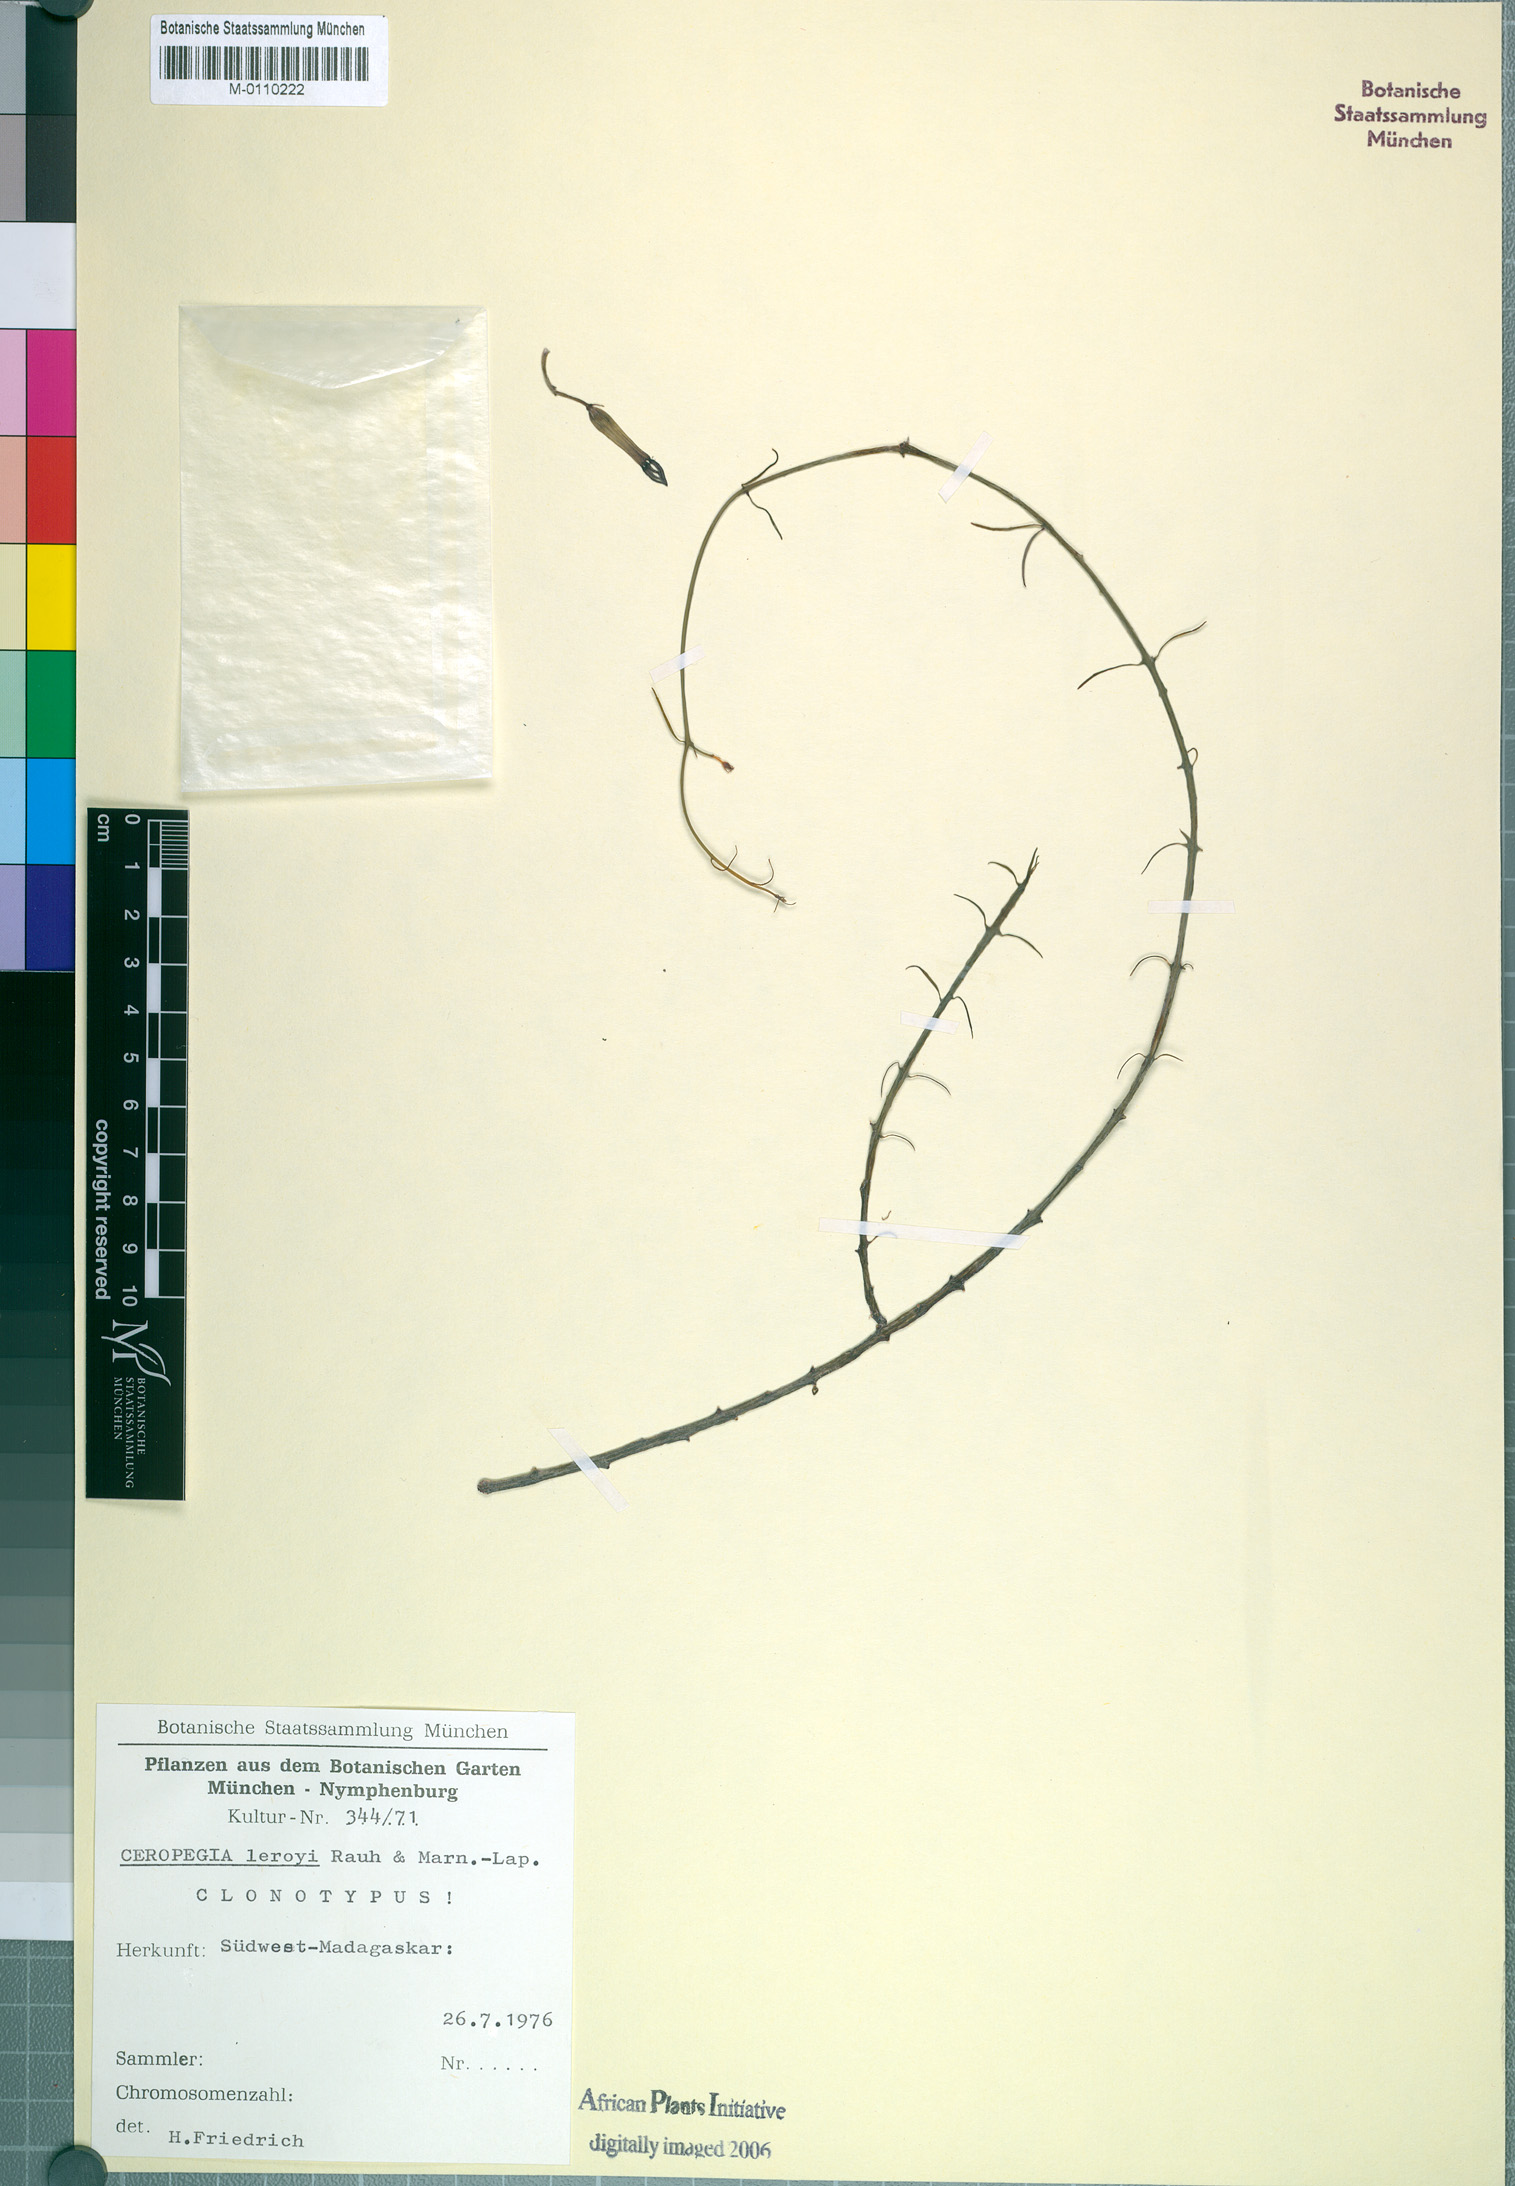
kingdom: Plantae
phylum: Tracheophyta
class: Magnoliopsida
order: Gentianales
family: Apocynaceae
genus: Ceropegia
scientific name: Ceropegia leroyi
